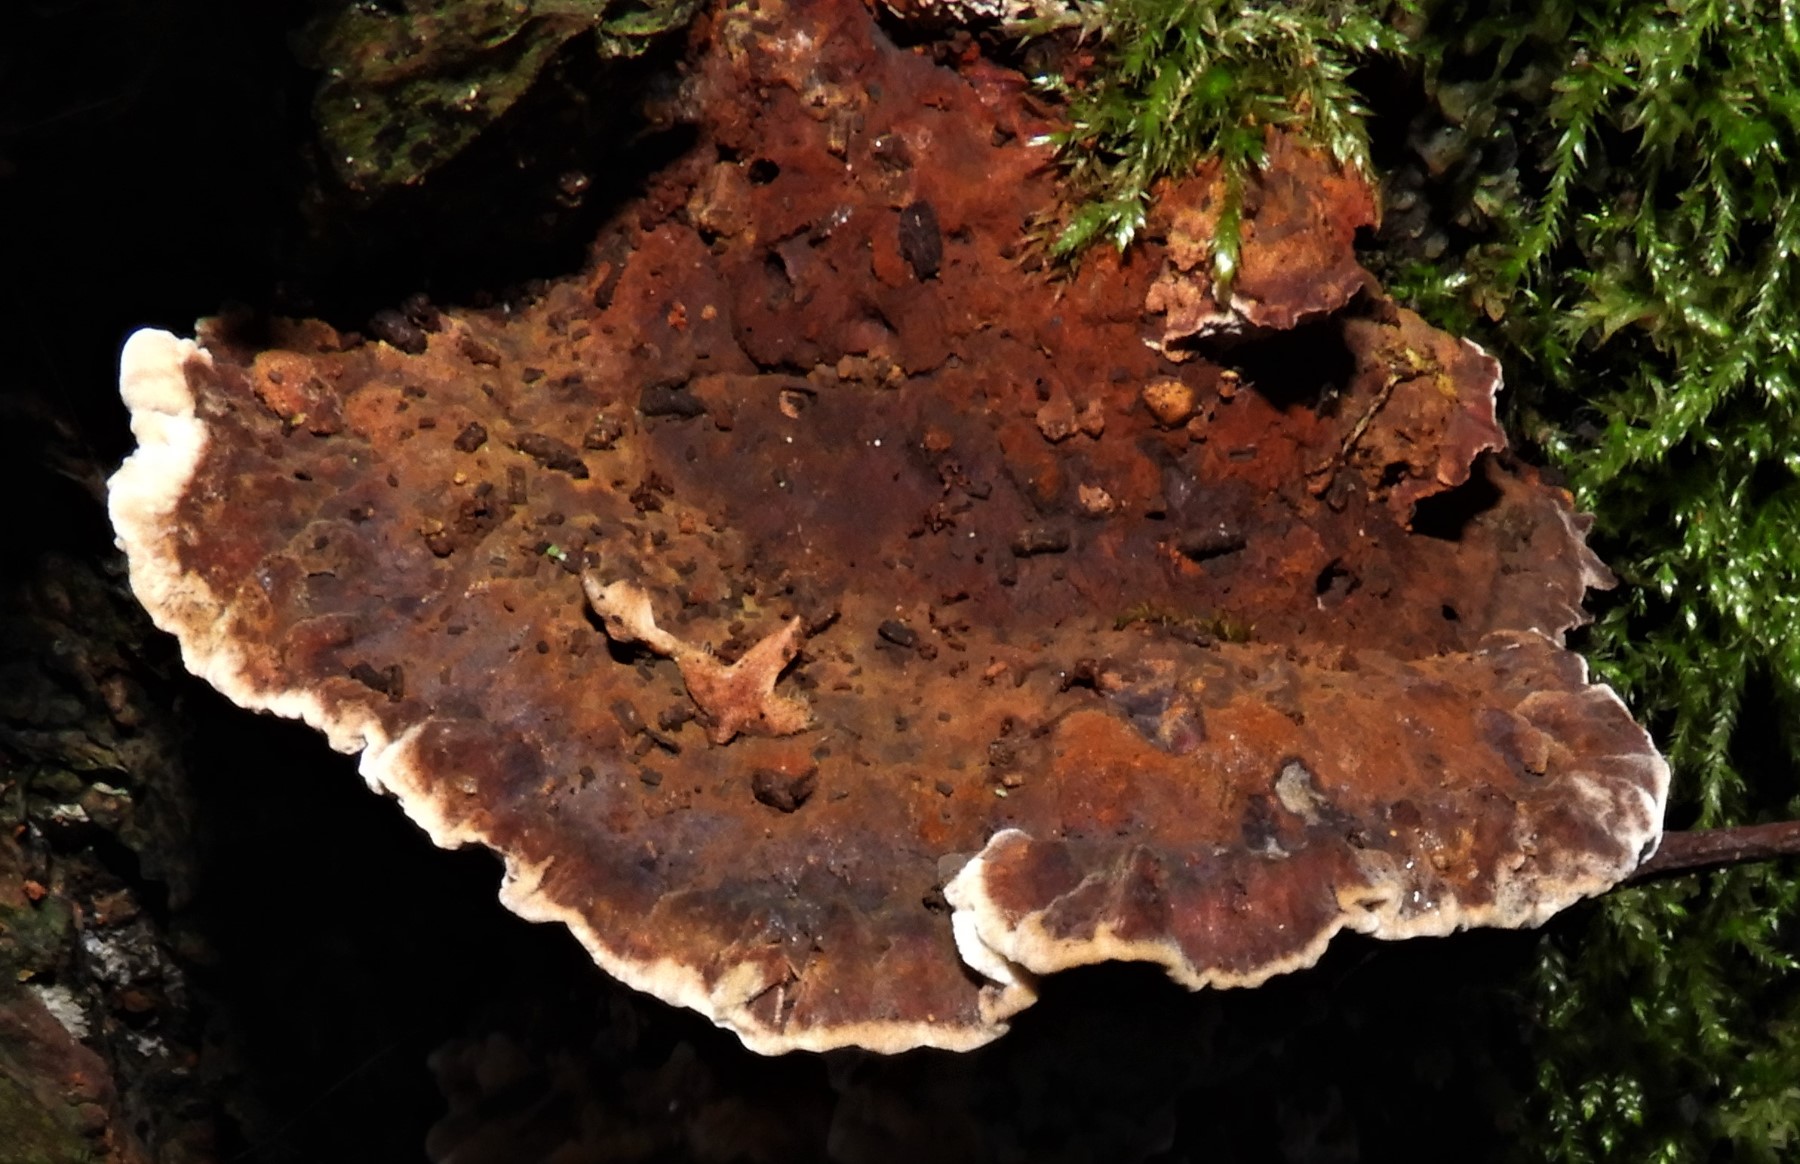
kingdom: Fungi
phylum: Basidiomycota
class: Agaricomycetes
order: Hymenochaetales
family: Hymenochaetaceae
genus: Xanthoporia
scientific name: Xanthoporia radiata
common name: elle-spejlporesvamp
